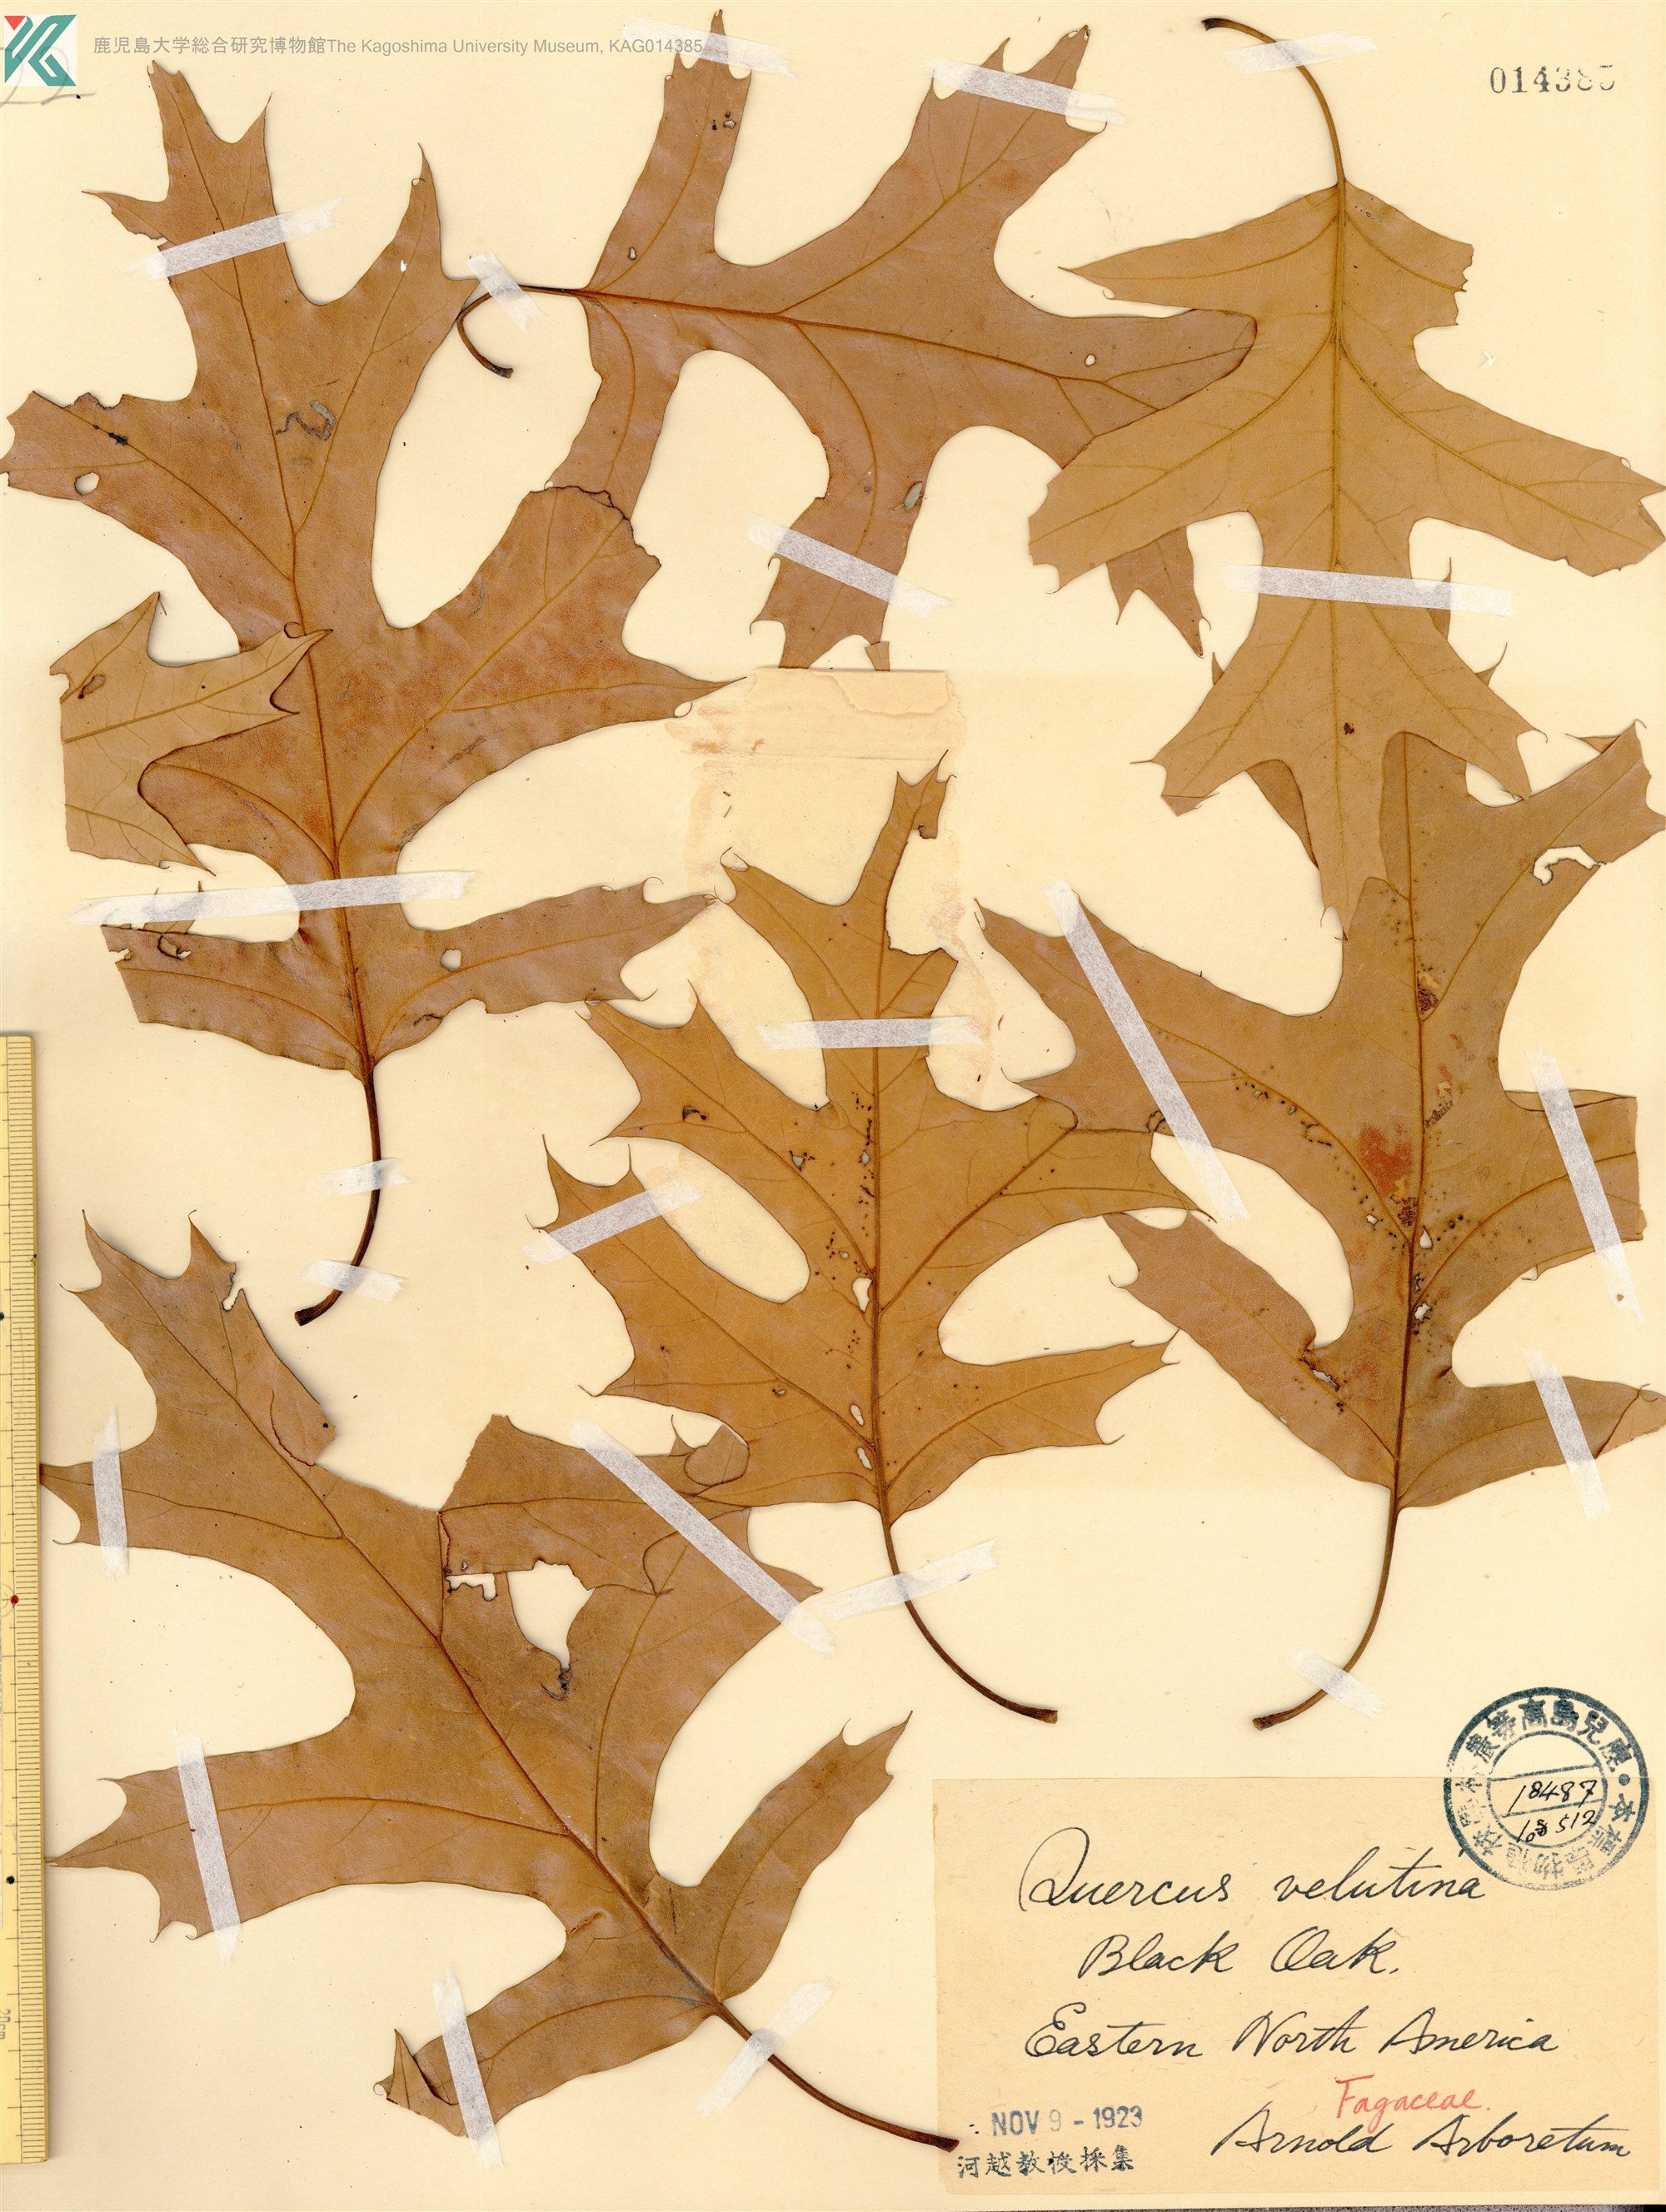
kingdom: Plantae
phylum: Tracheophyta
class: Magnoliopsida
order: Fagales
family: Fagaceae
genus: Quercus
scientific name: Quercus velutina
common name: Black oak
